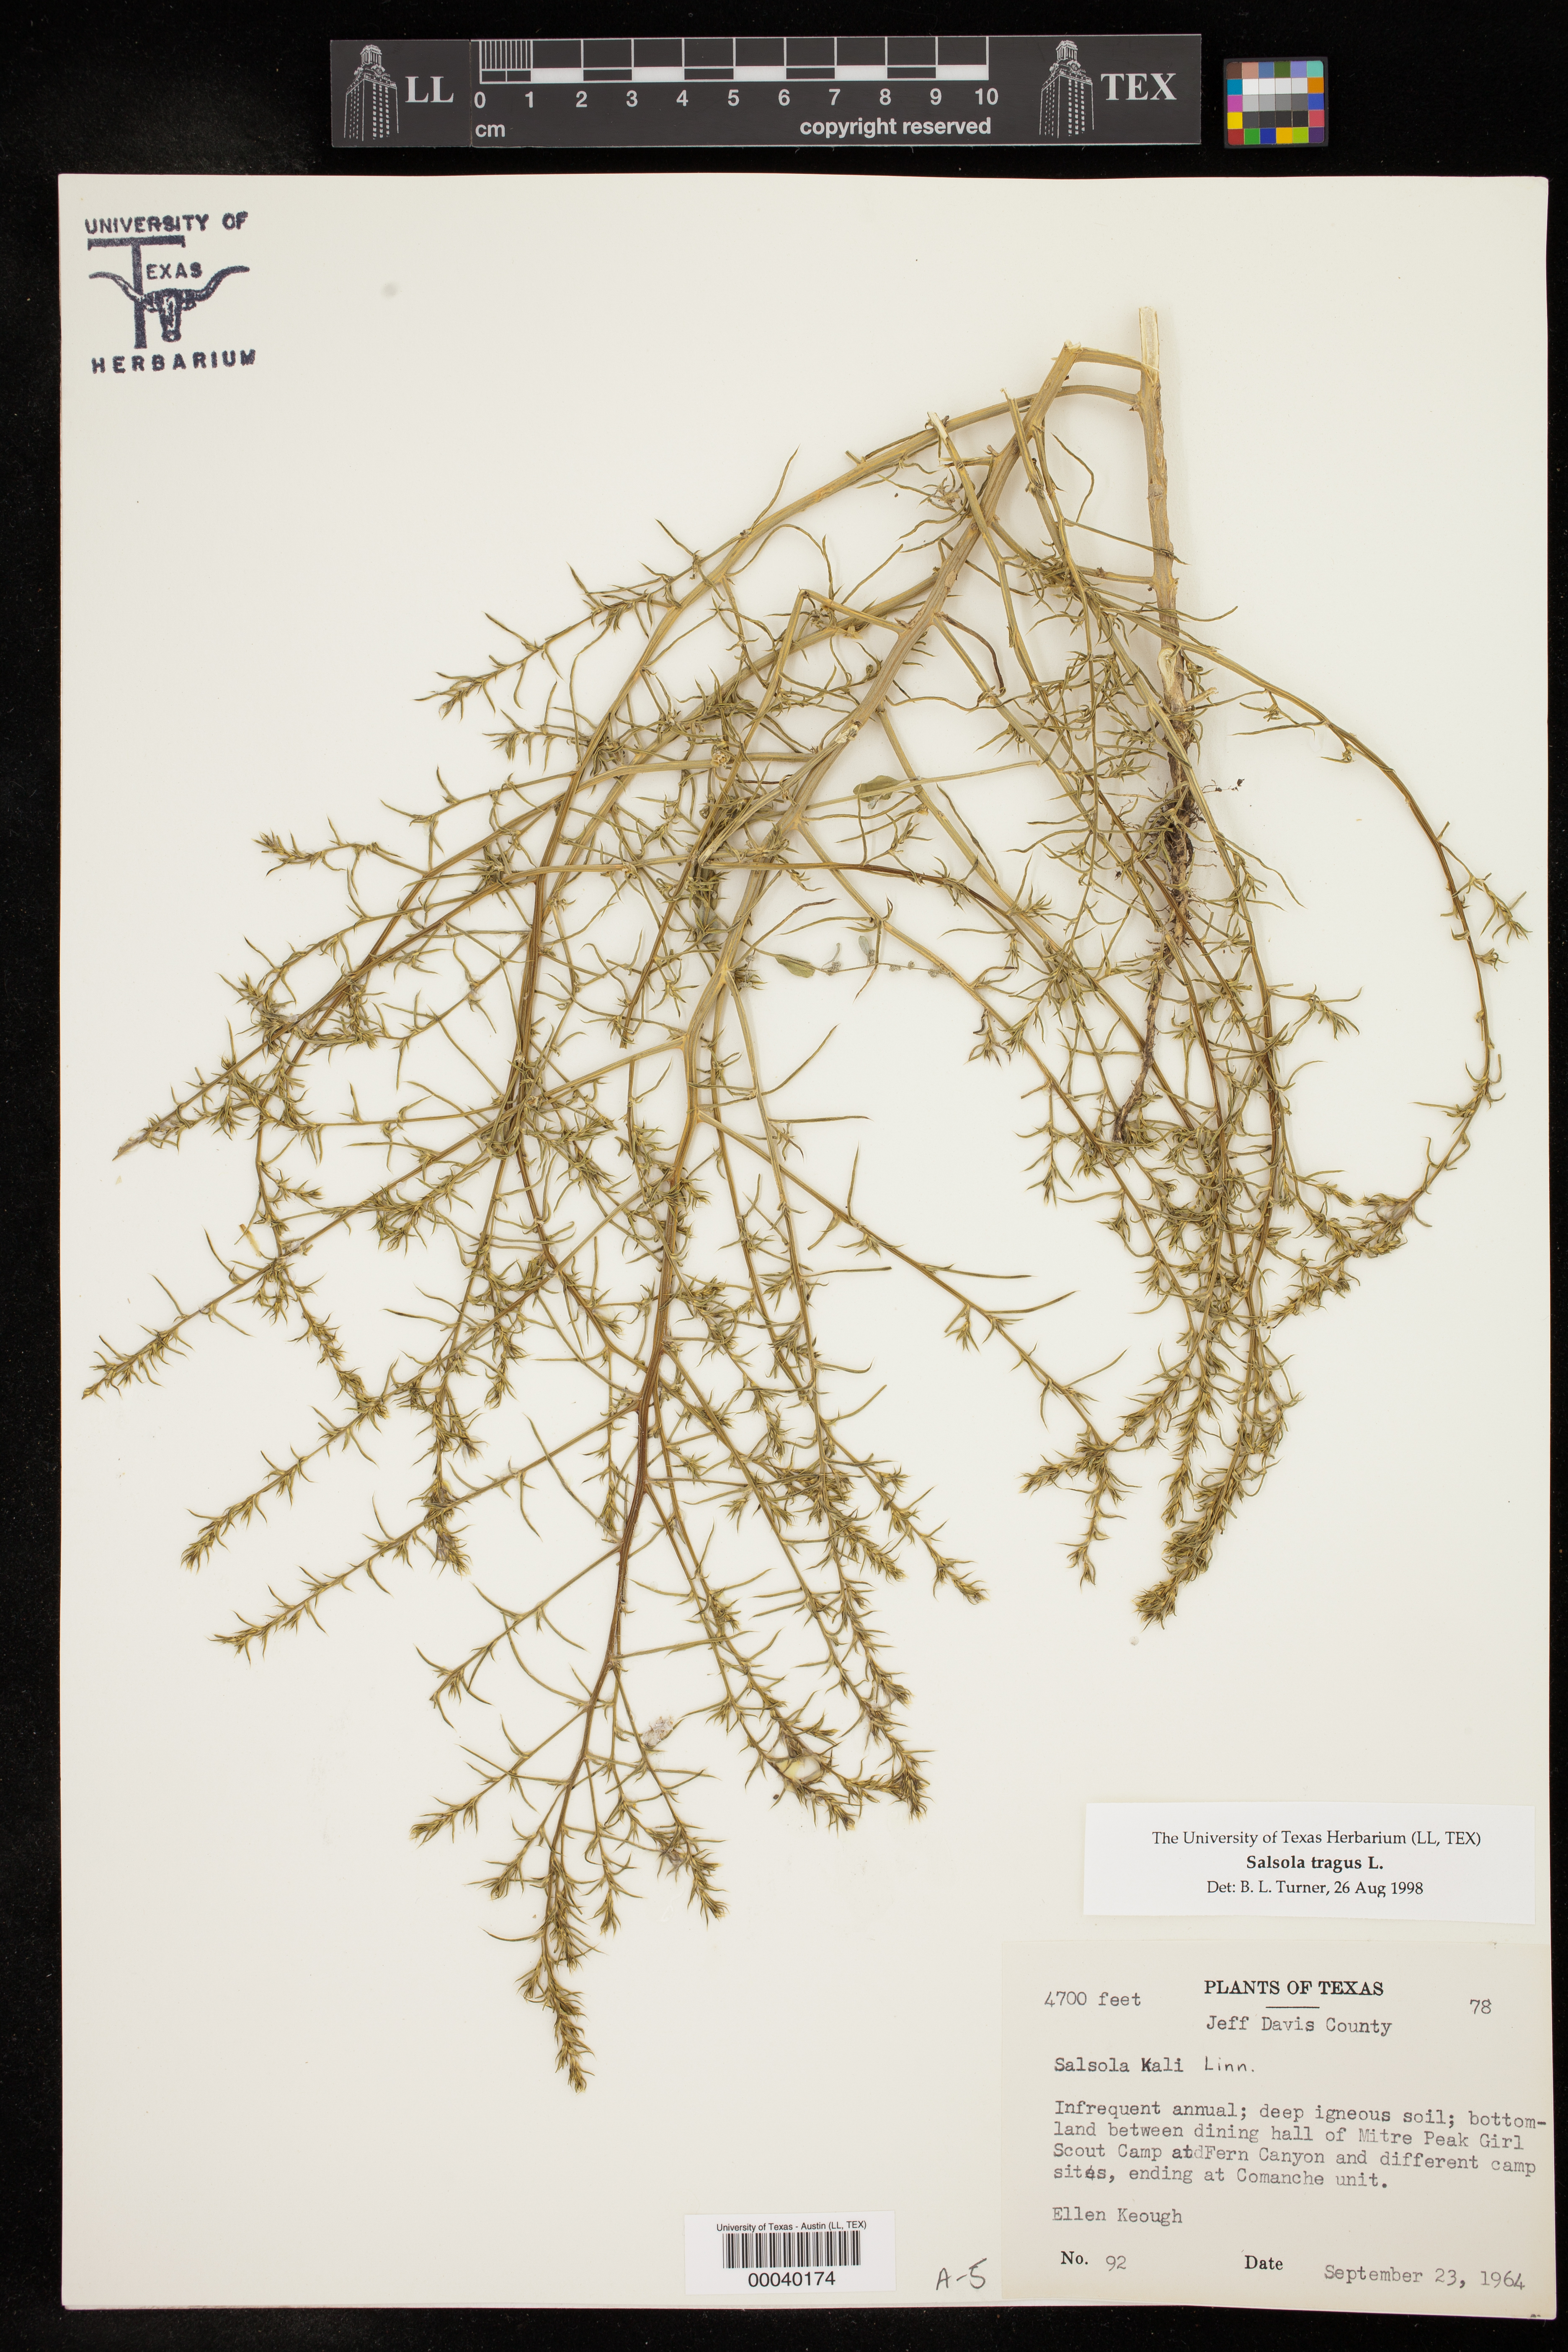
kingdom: Plantae
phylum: Tracheophyta
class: Magnoliopsida
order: Caryophyllales
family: Amaranthaceae
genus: Salsola
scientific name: Salsola tragus
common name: Prickly russian thistle
